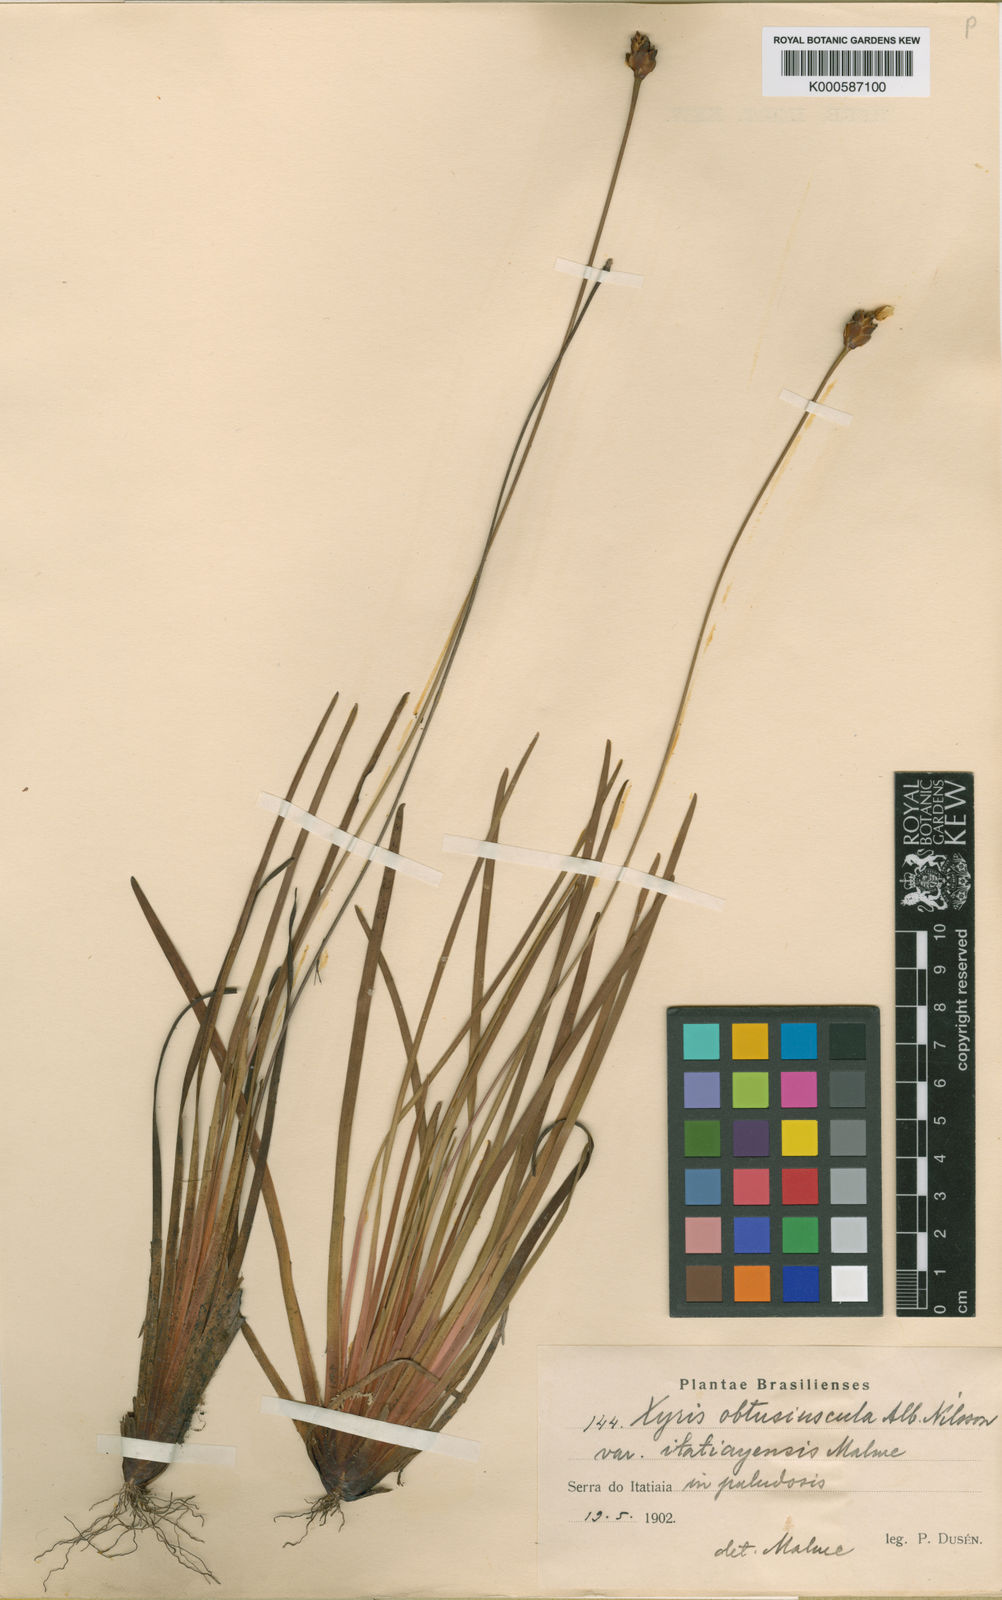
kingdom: Plantae
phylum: Tracheophyta
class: Liliopsida
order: Poales
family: Xyridaceae
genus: Xyris
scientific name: Xyris itatiayensis
